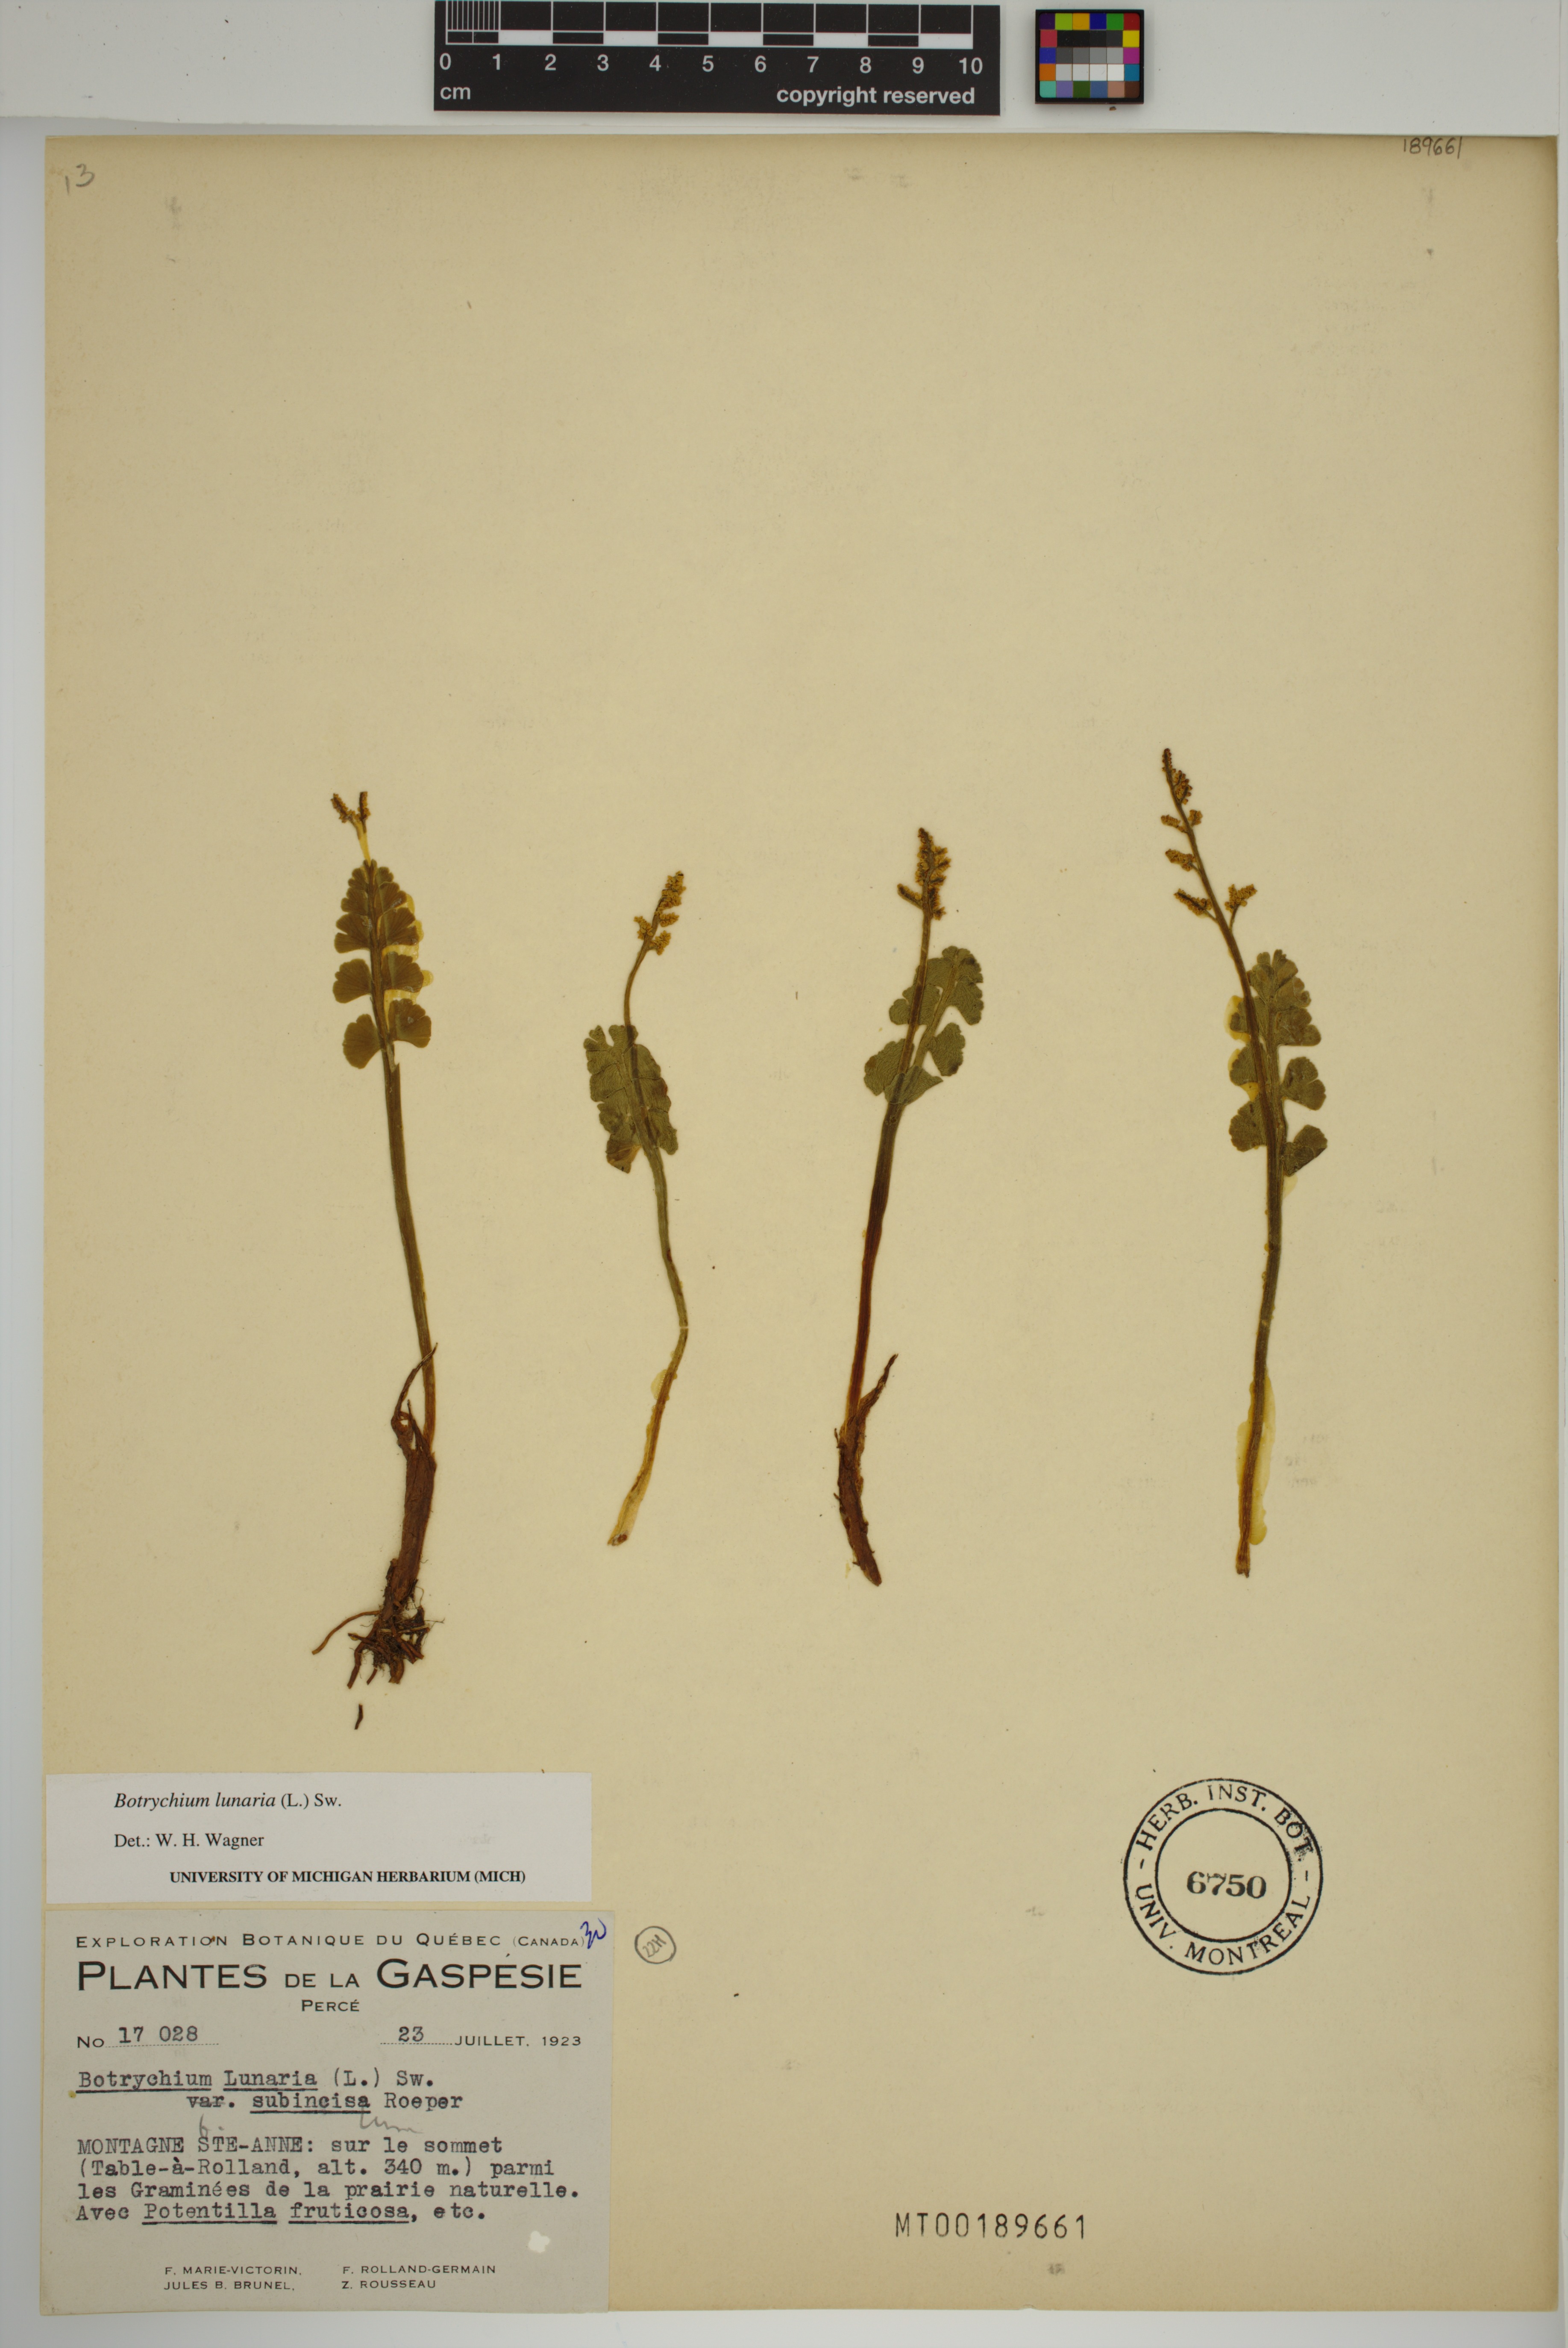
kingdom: Plantae
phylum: Tracheophyta
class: Polypodiopsida
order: Ophioglossales
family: Ophioglossaceae
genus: Botrychium
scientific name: Botrychium lunaria
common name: Moonwort
